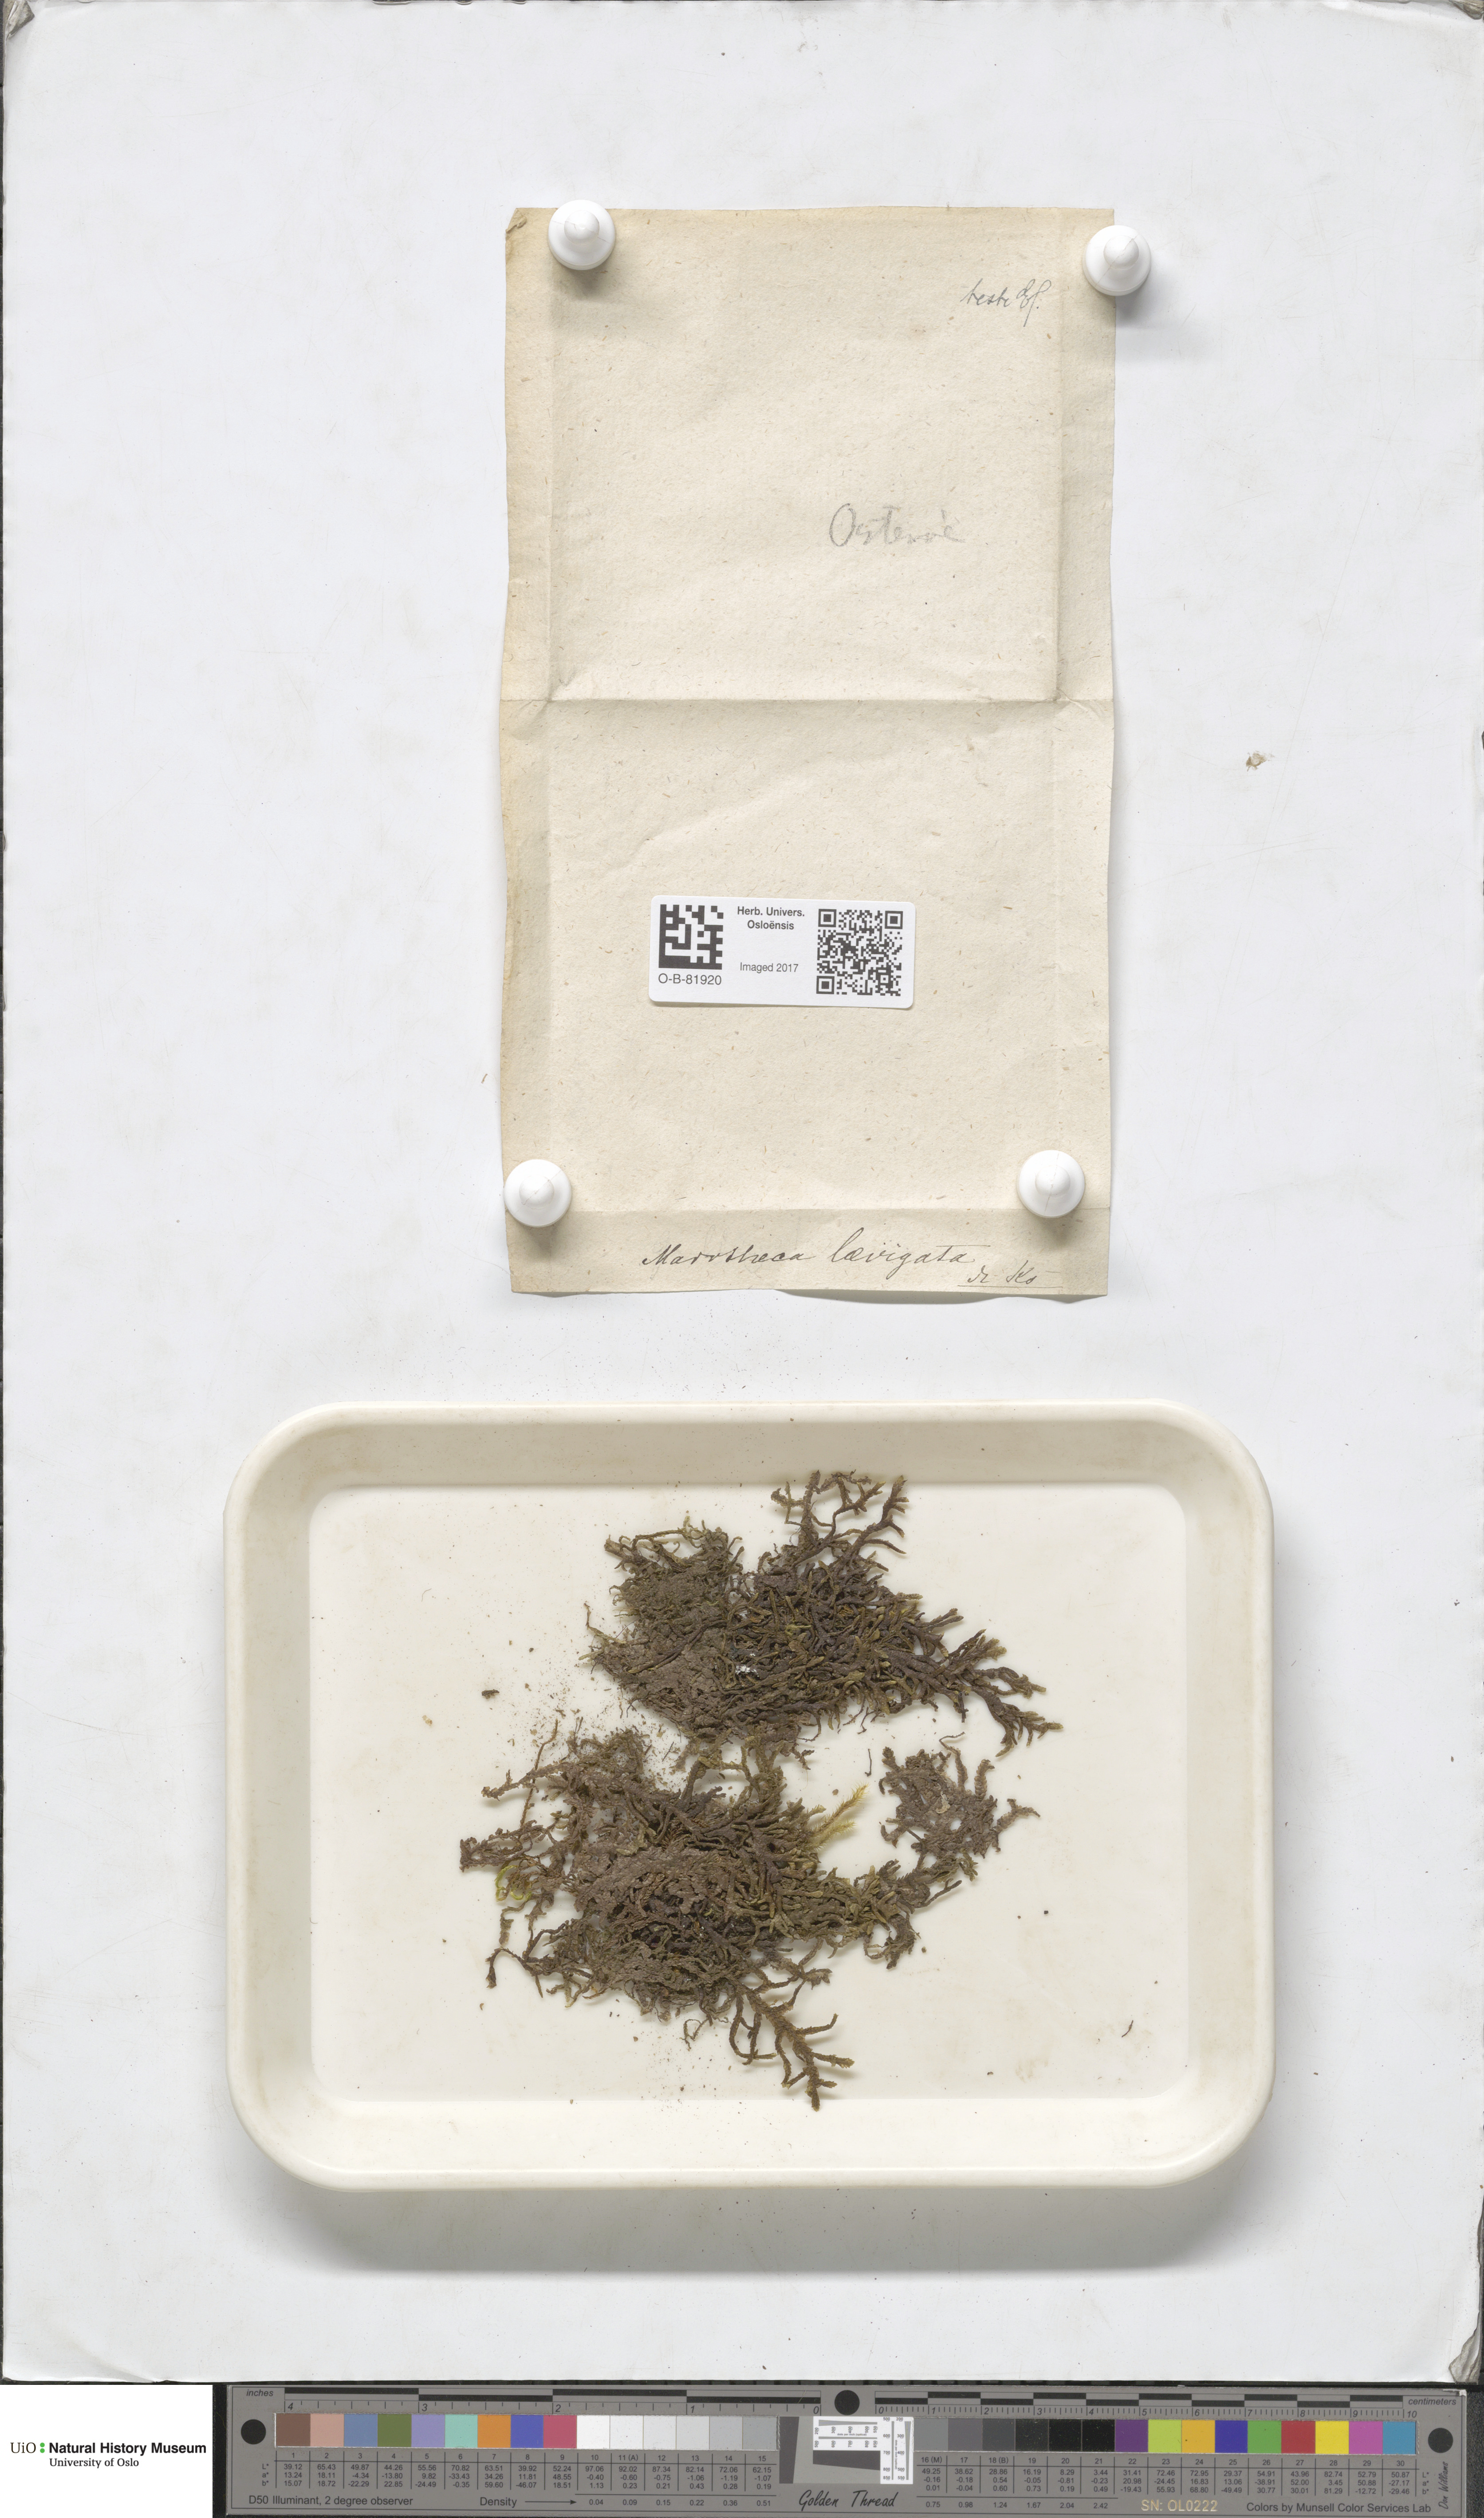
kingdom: Plantae
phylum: Marchantiophyta
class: Jungermanniopsida
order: Porellales
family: Porellaceae
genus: Porella
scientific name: Porella arboris-vitae
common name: Bitter scalewort
